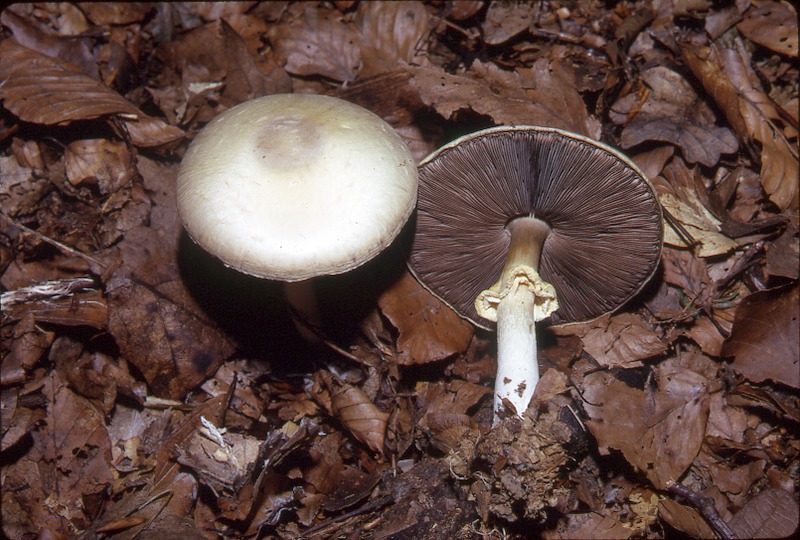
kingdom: Fungi
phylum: Basidiomycota
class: Agaricomycetes
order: Agaricales
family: Agaricaceae
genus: Agaricus
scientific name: Agaricus sylvicola
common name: Wood mushroom
